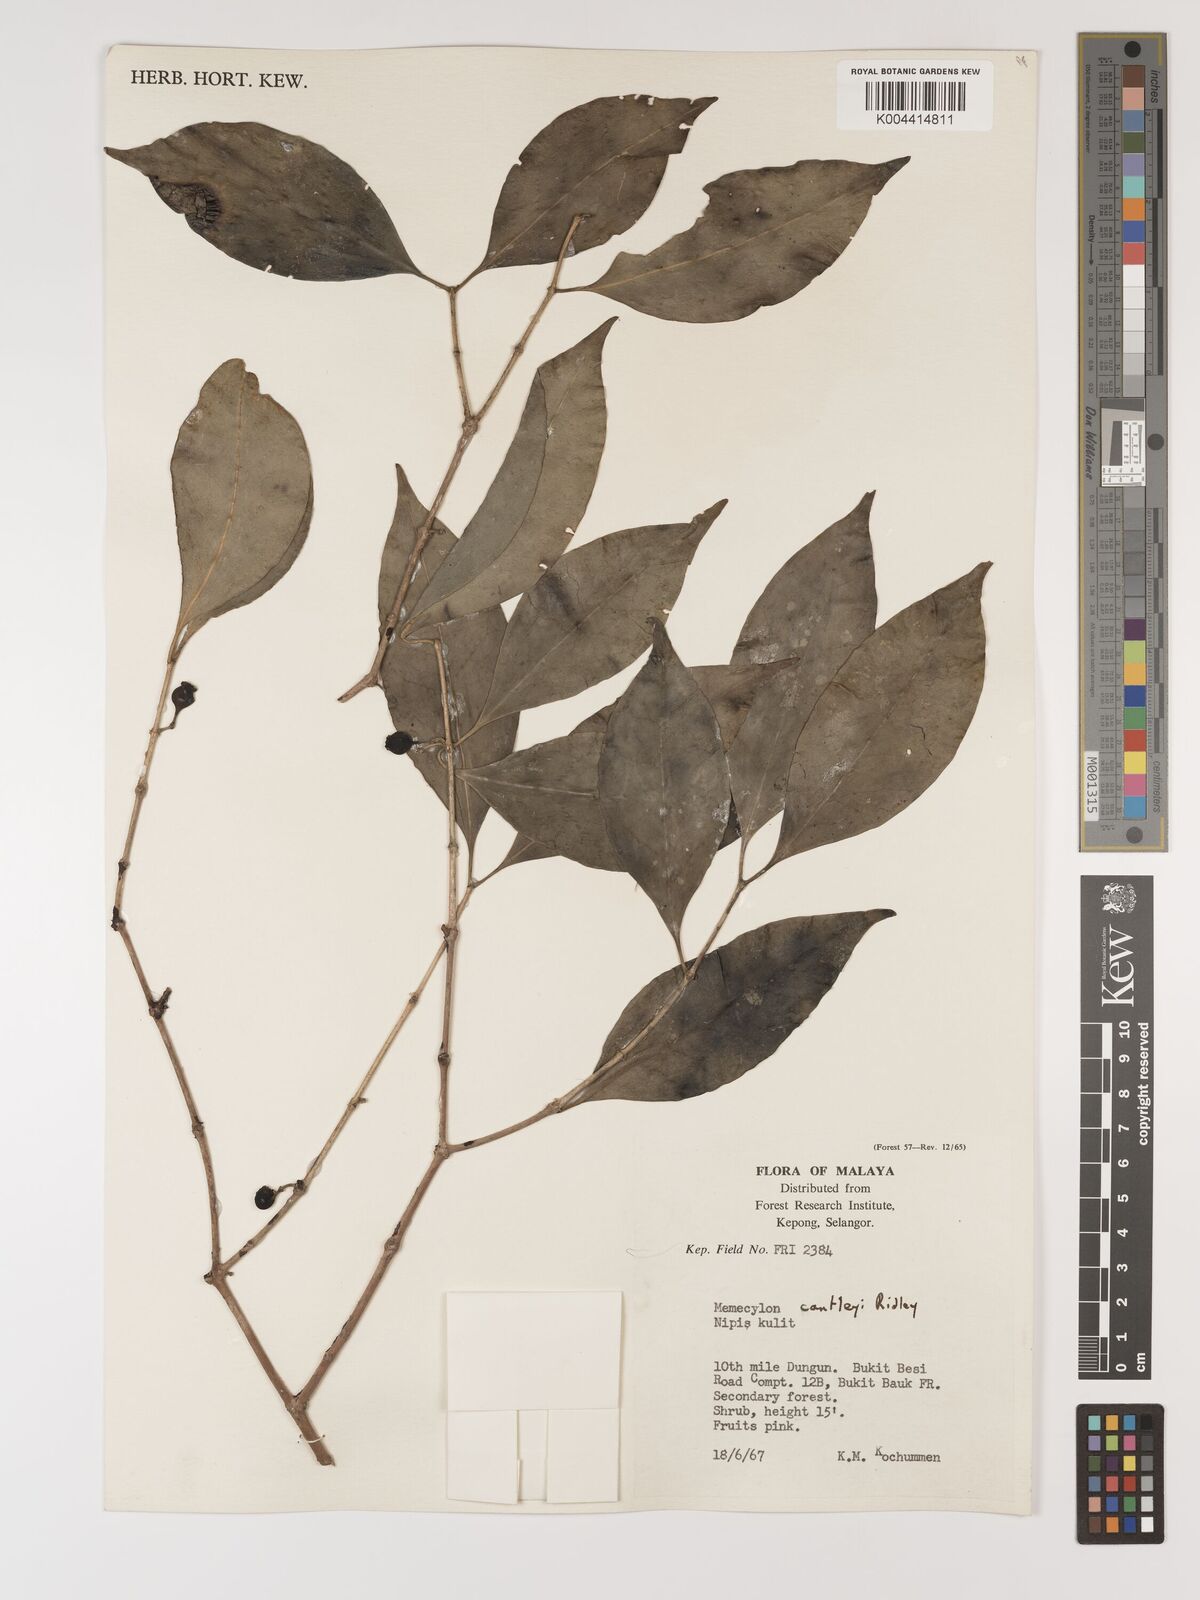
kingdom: Plantae
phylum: Tracheophyta
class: Magnoliopsida
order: Myrtales
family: Melastomataceae
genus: Memecylon
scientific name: Memecylon cantleyi
